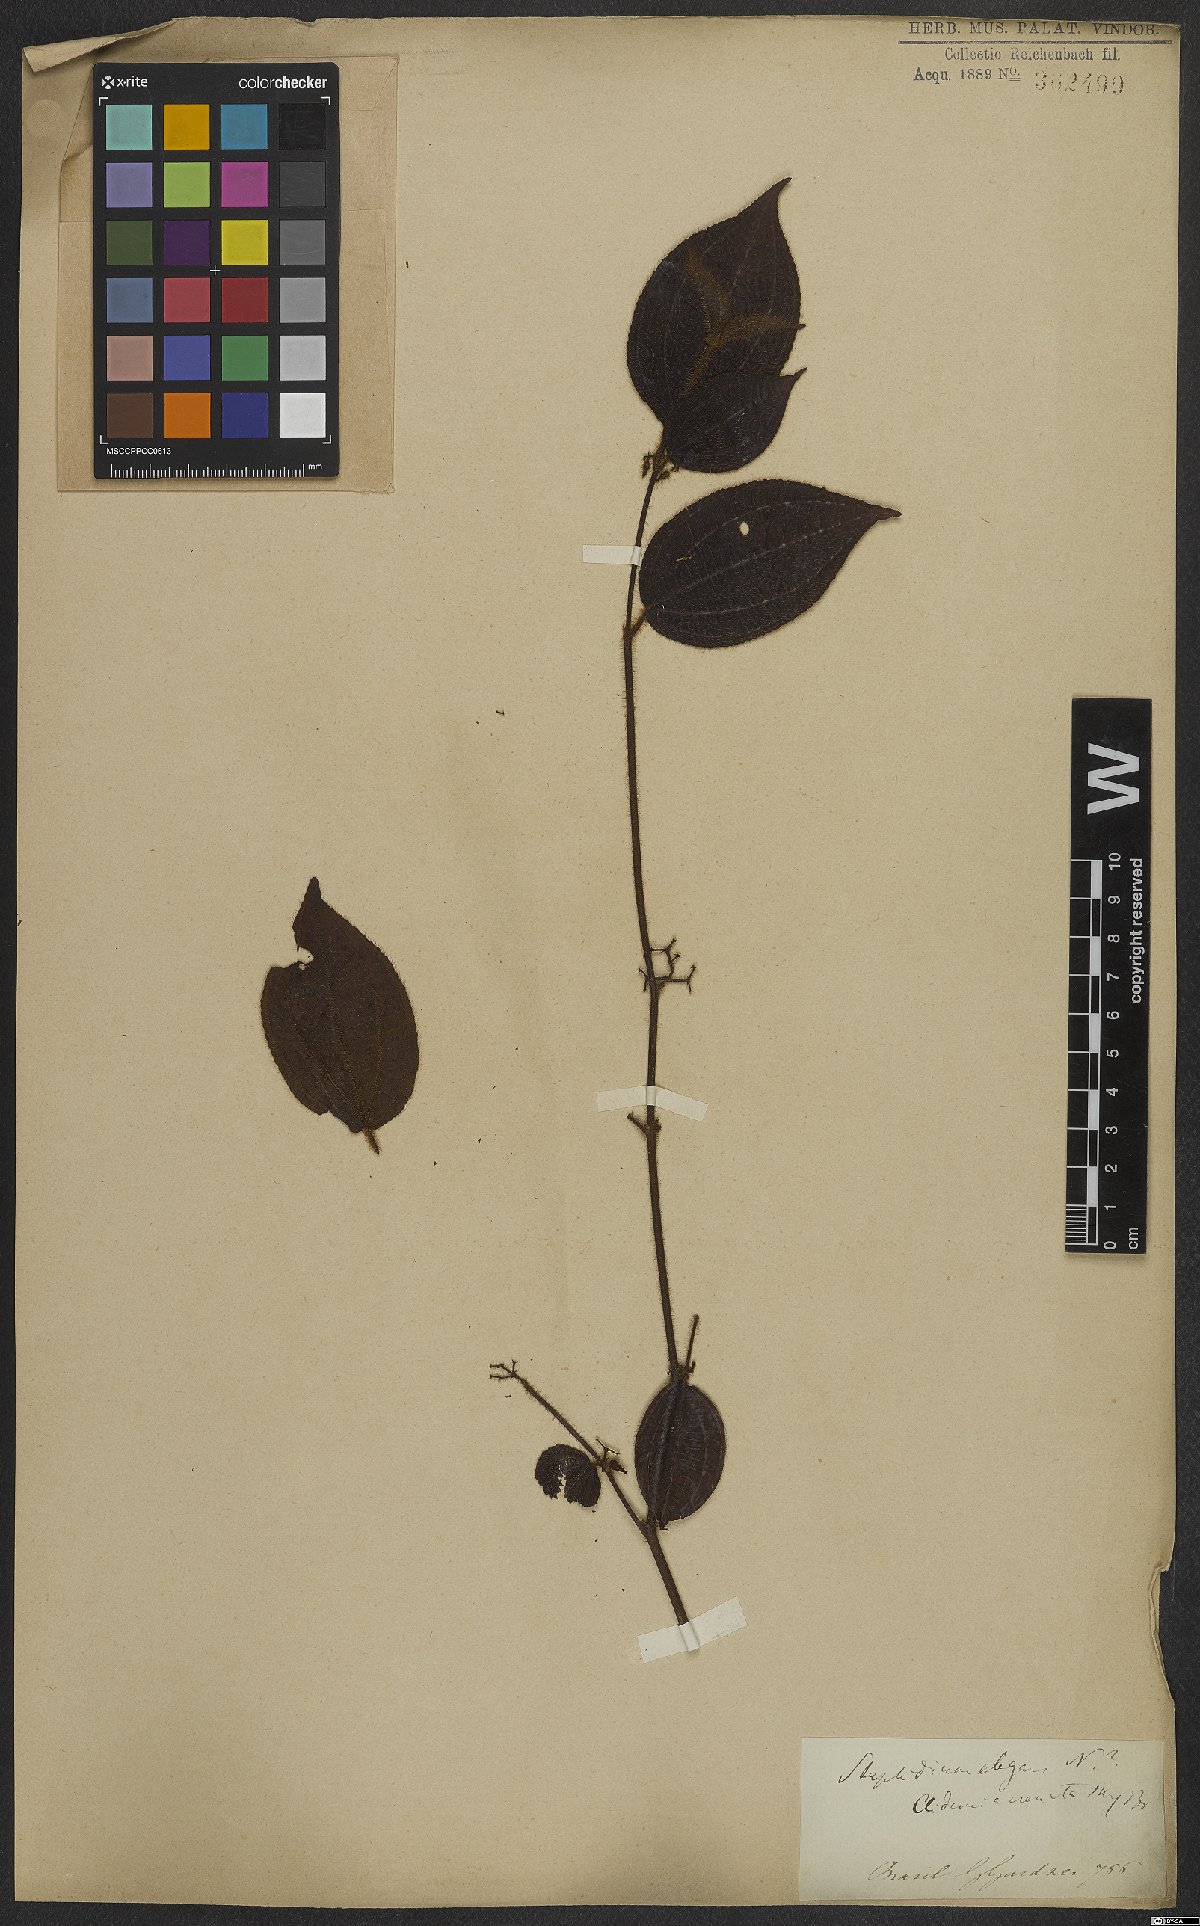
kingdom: Plantae
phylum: Tracheophyta
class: Magnoliopsida
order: Myrtales
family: Melastomataceae
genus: Miconia
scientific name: Miconia crenata
